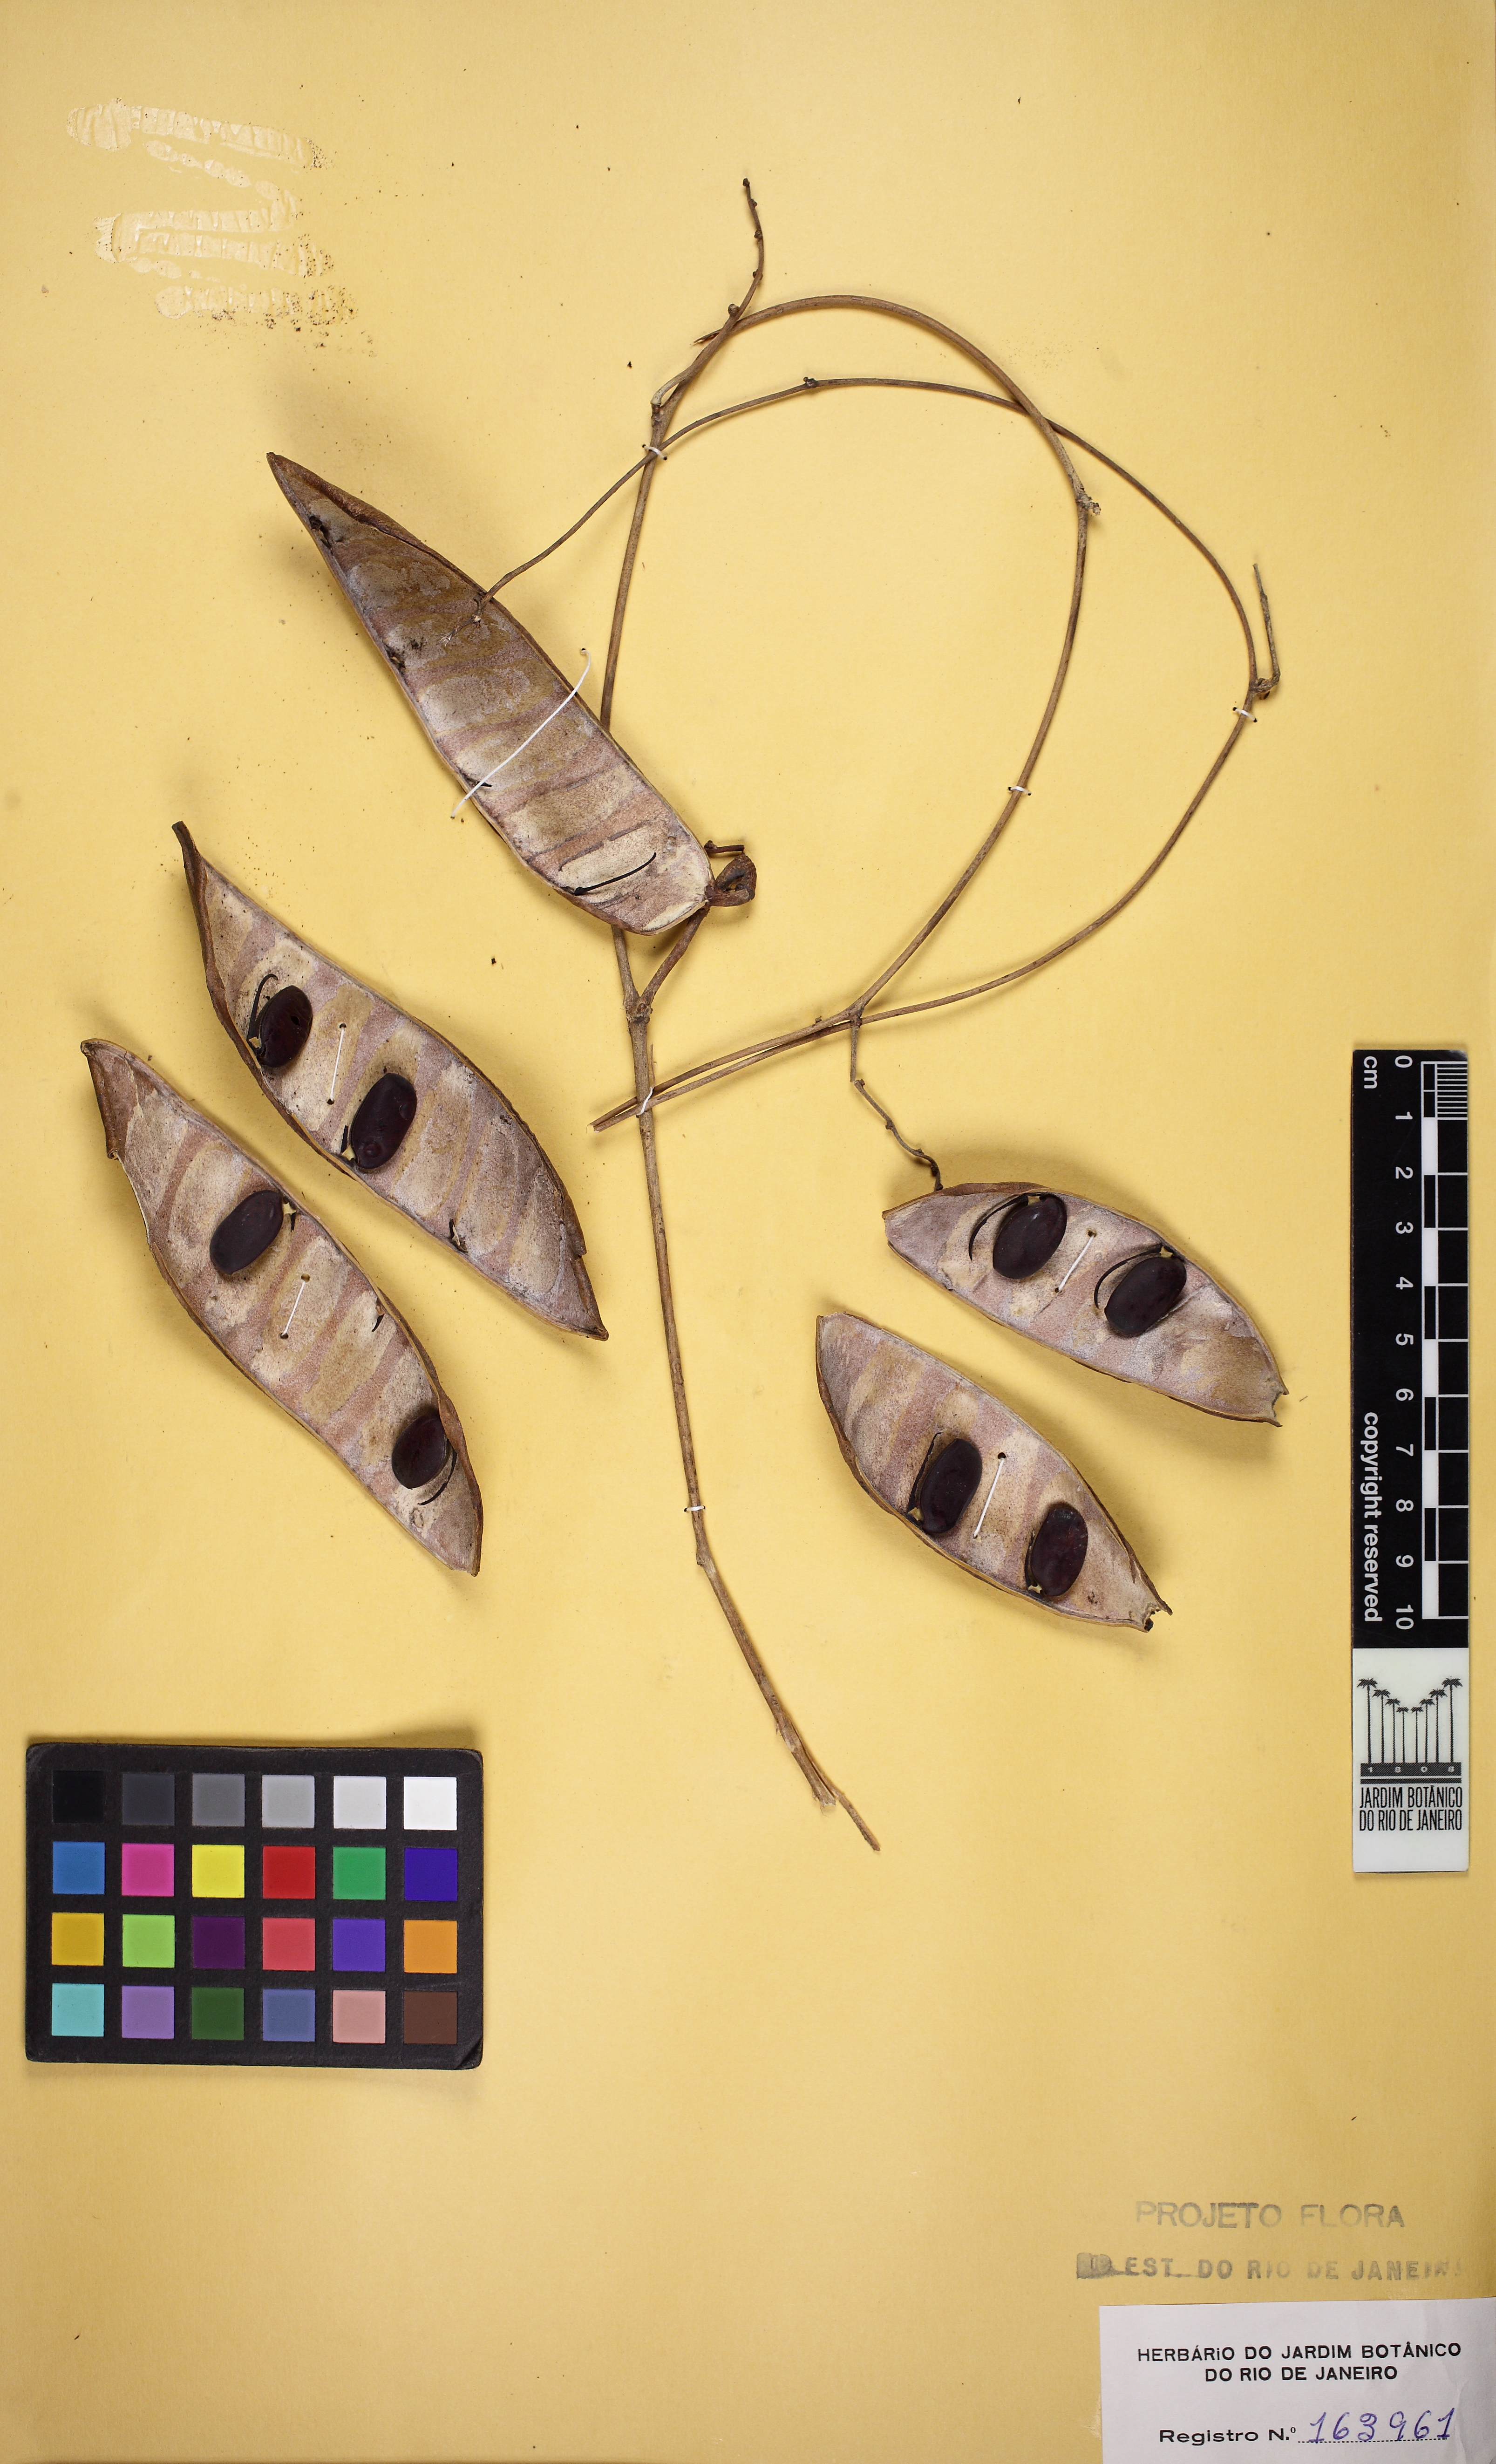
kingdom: Plantae
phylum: Tracheophyta
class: Magnoliopsida
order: Fabales
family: Fabaceae
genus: Canavalia
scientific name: Canavalia parviflora
